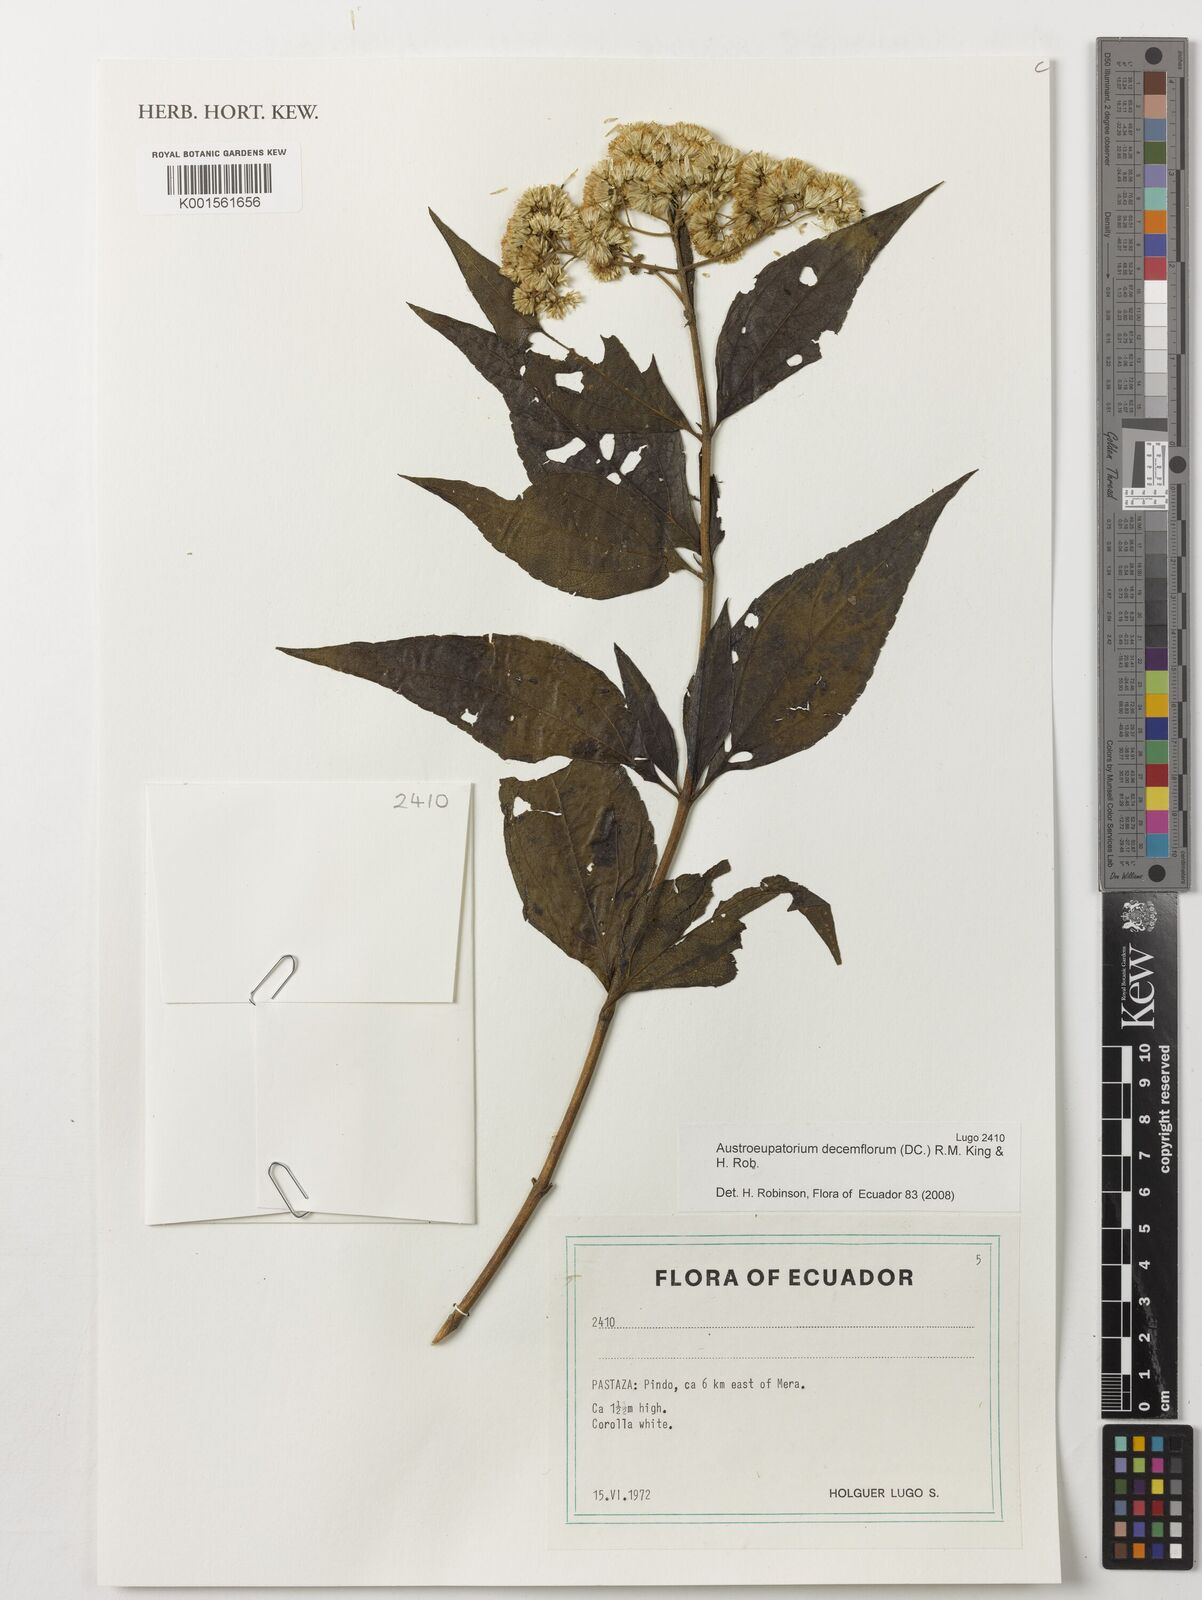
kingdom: Plantae
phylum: Tracheophyta
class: Magnoliopsida
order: Asterales
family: Asteraceae
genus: Austroeupatorium
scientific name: Austroeupatorium decemflorum
